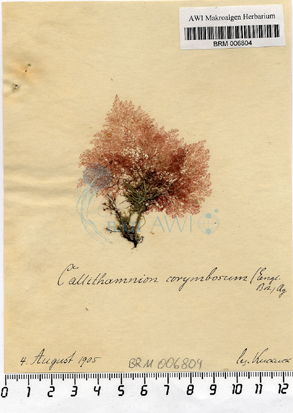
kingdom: Plantae
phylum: Rhodophyta
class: Florideophyceae
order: Ceramiales
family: Callithamniaceae
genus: Callithamnion
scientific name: Callithamnion corymbosum
